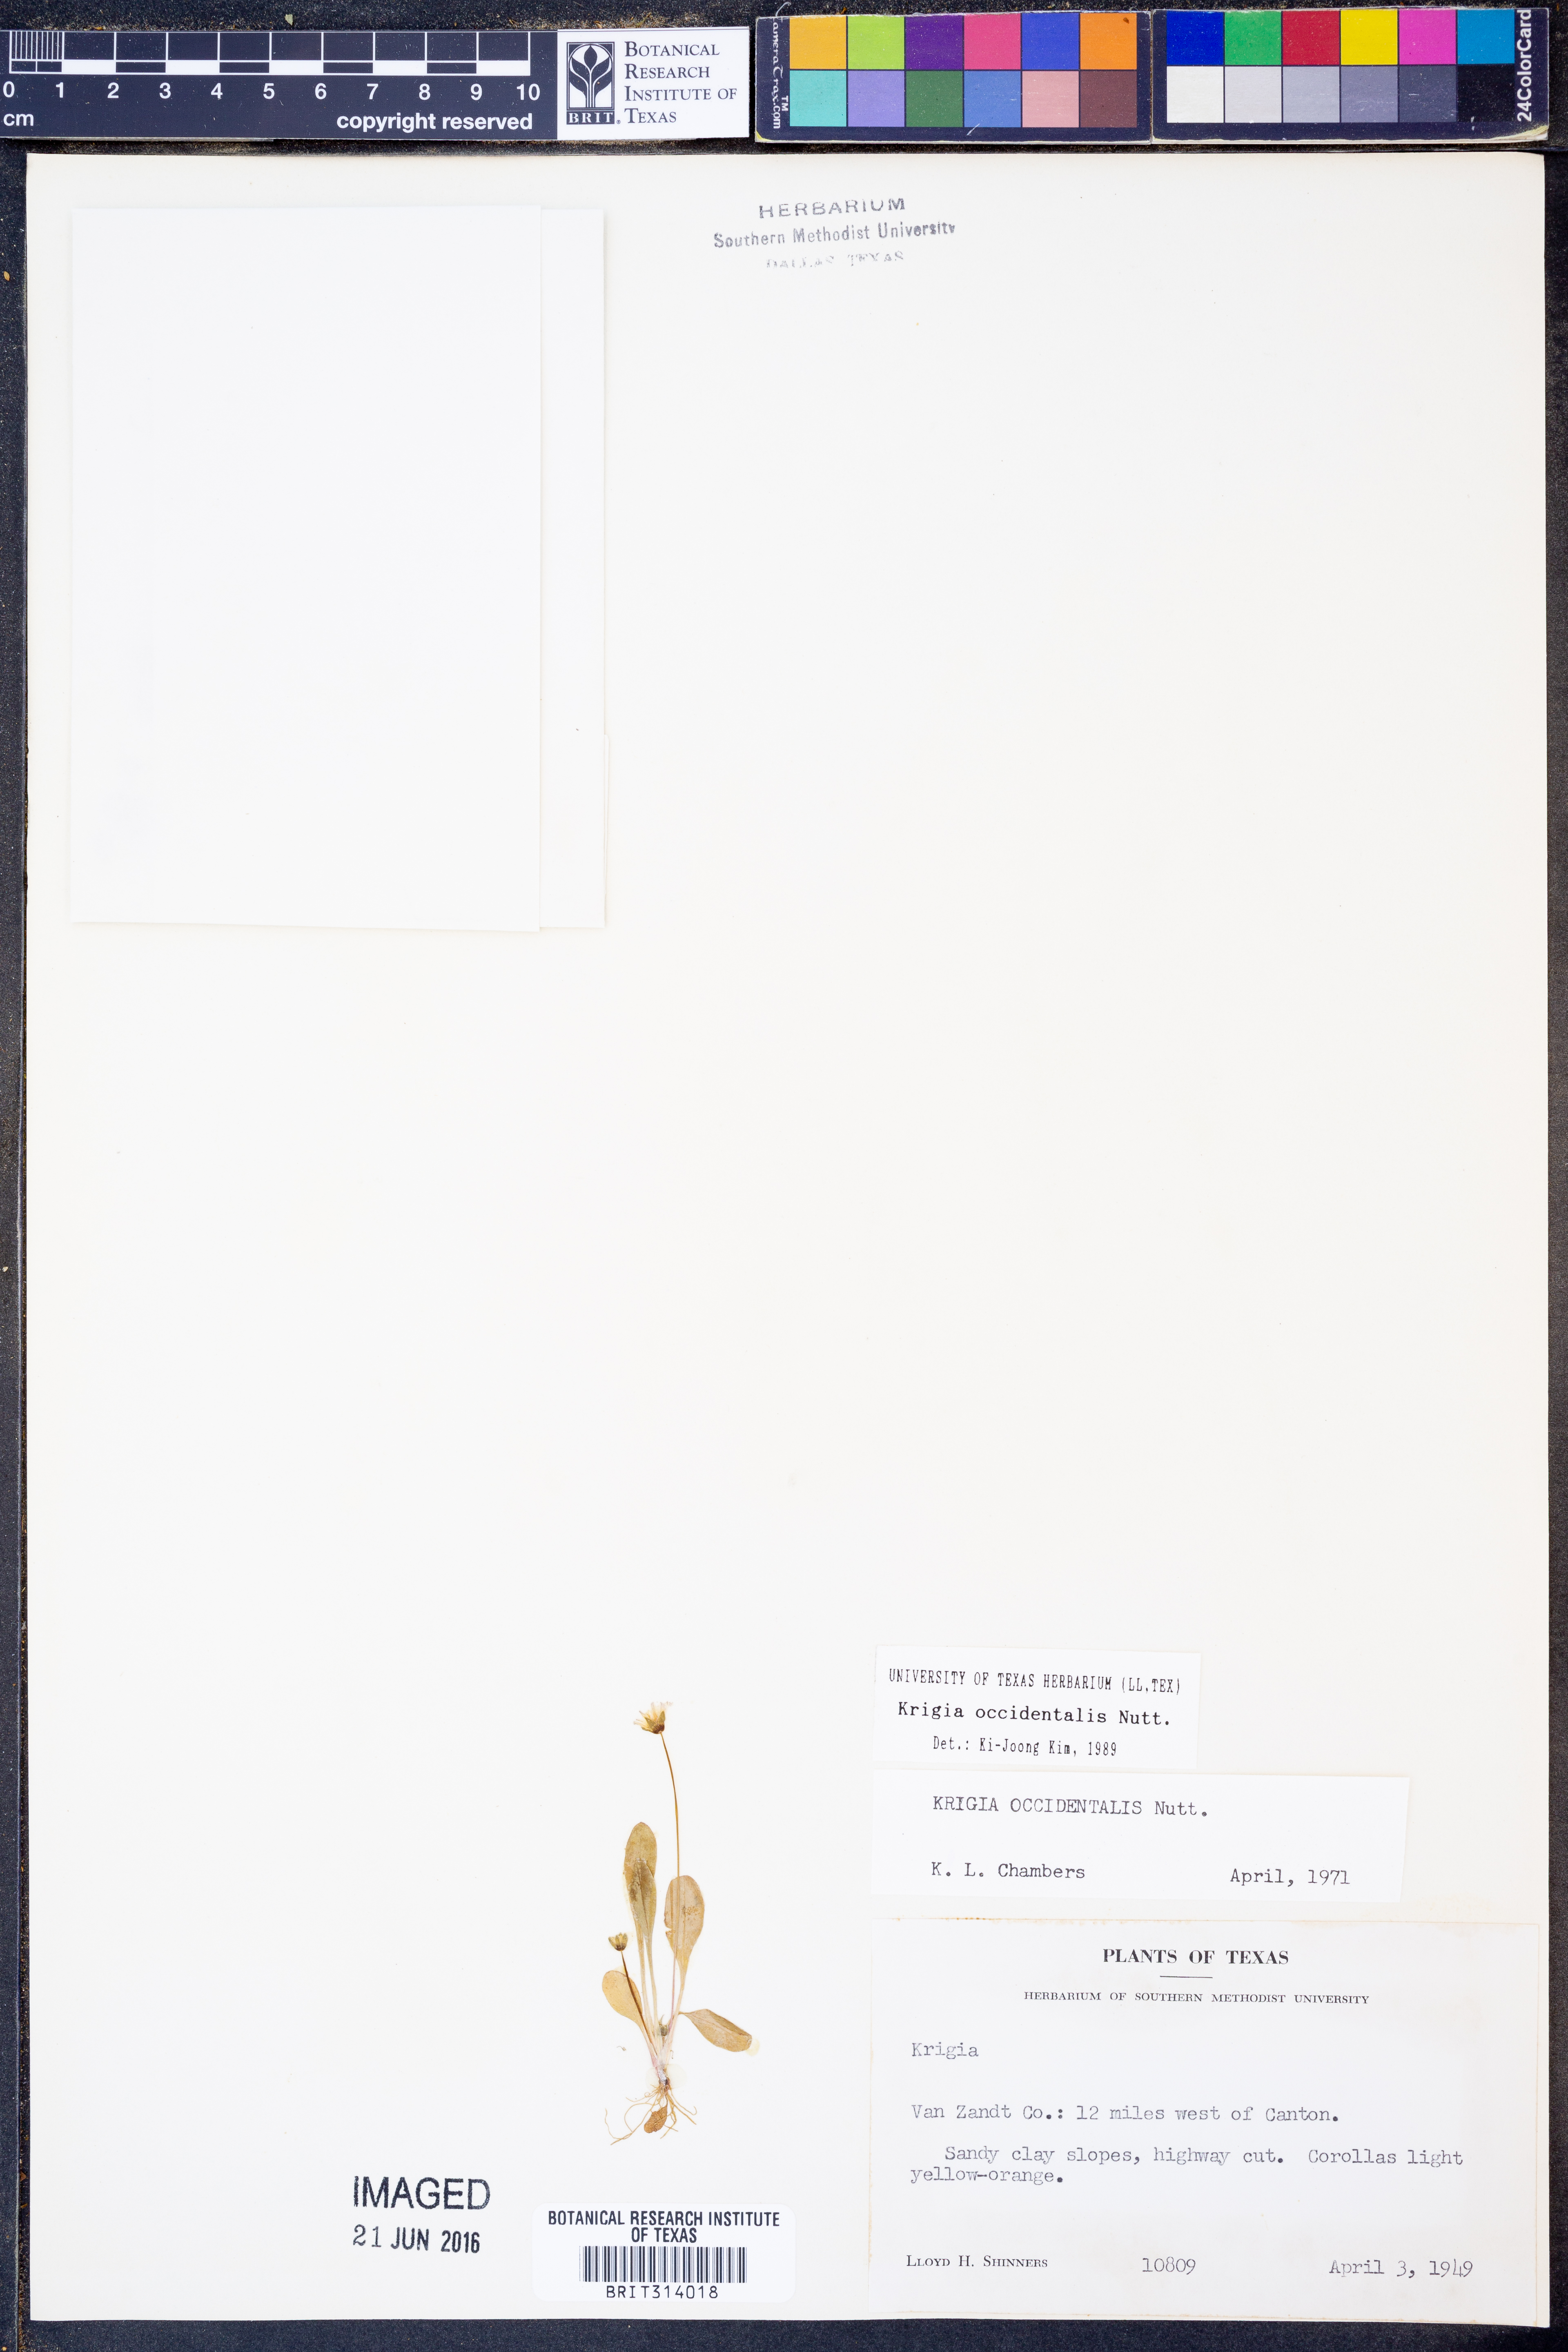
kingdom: Plantae
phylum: Tracheophyta
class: Magnoliopsida
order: Asterales
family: Asteraceae
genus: Krigia
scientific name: Krigia occidentalis
